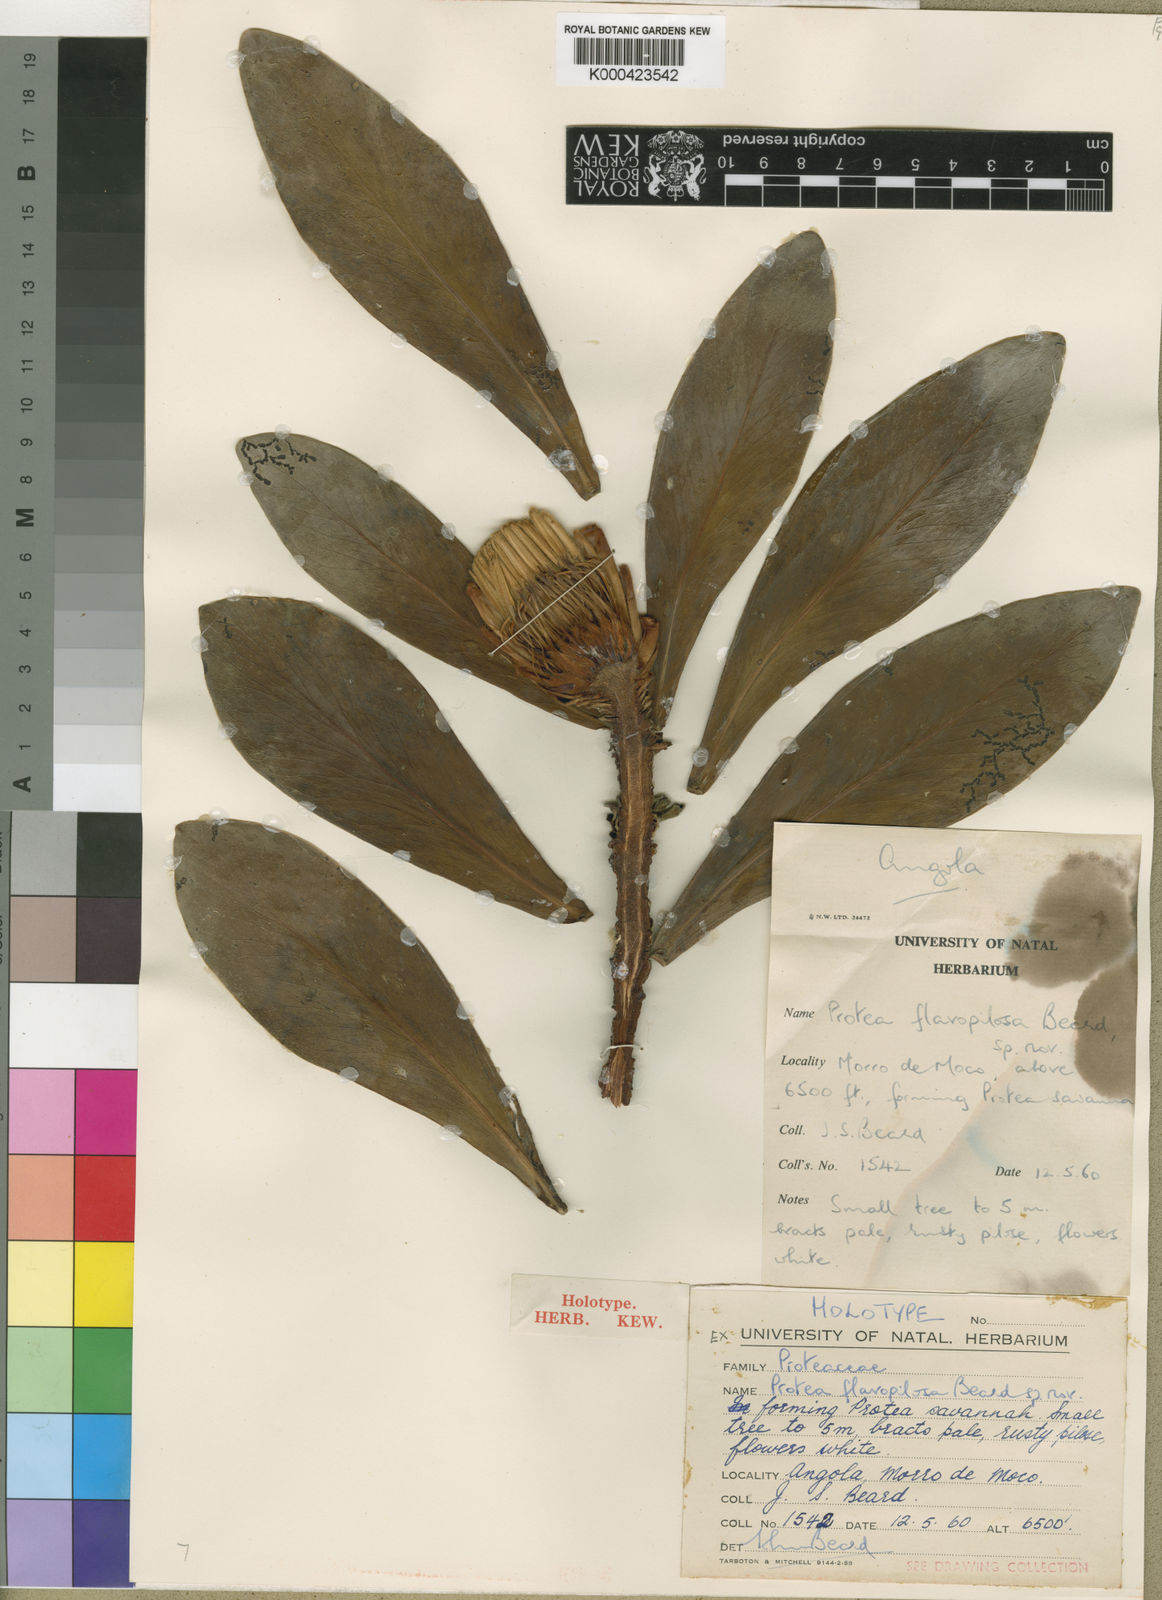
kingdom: Plantae
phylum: Tracheophyta
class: Magnoliopsida
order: Proteales
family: Proteaceae
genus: Protea
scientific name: Protea flavopilosa
